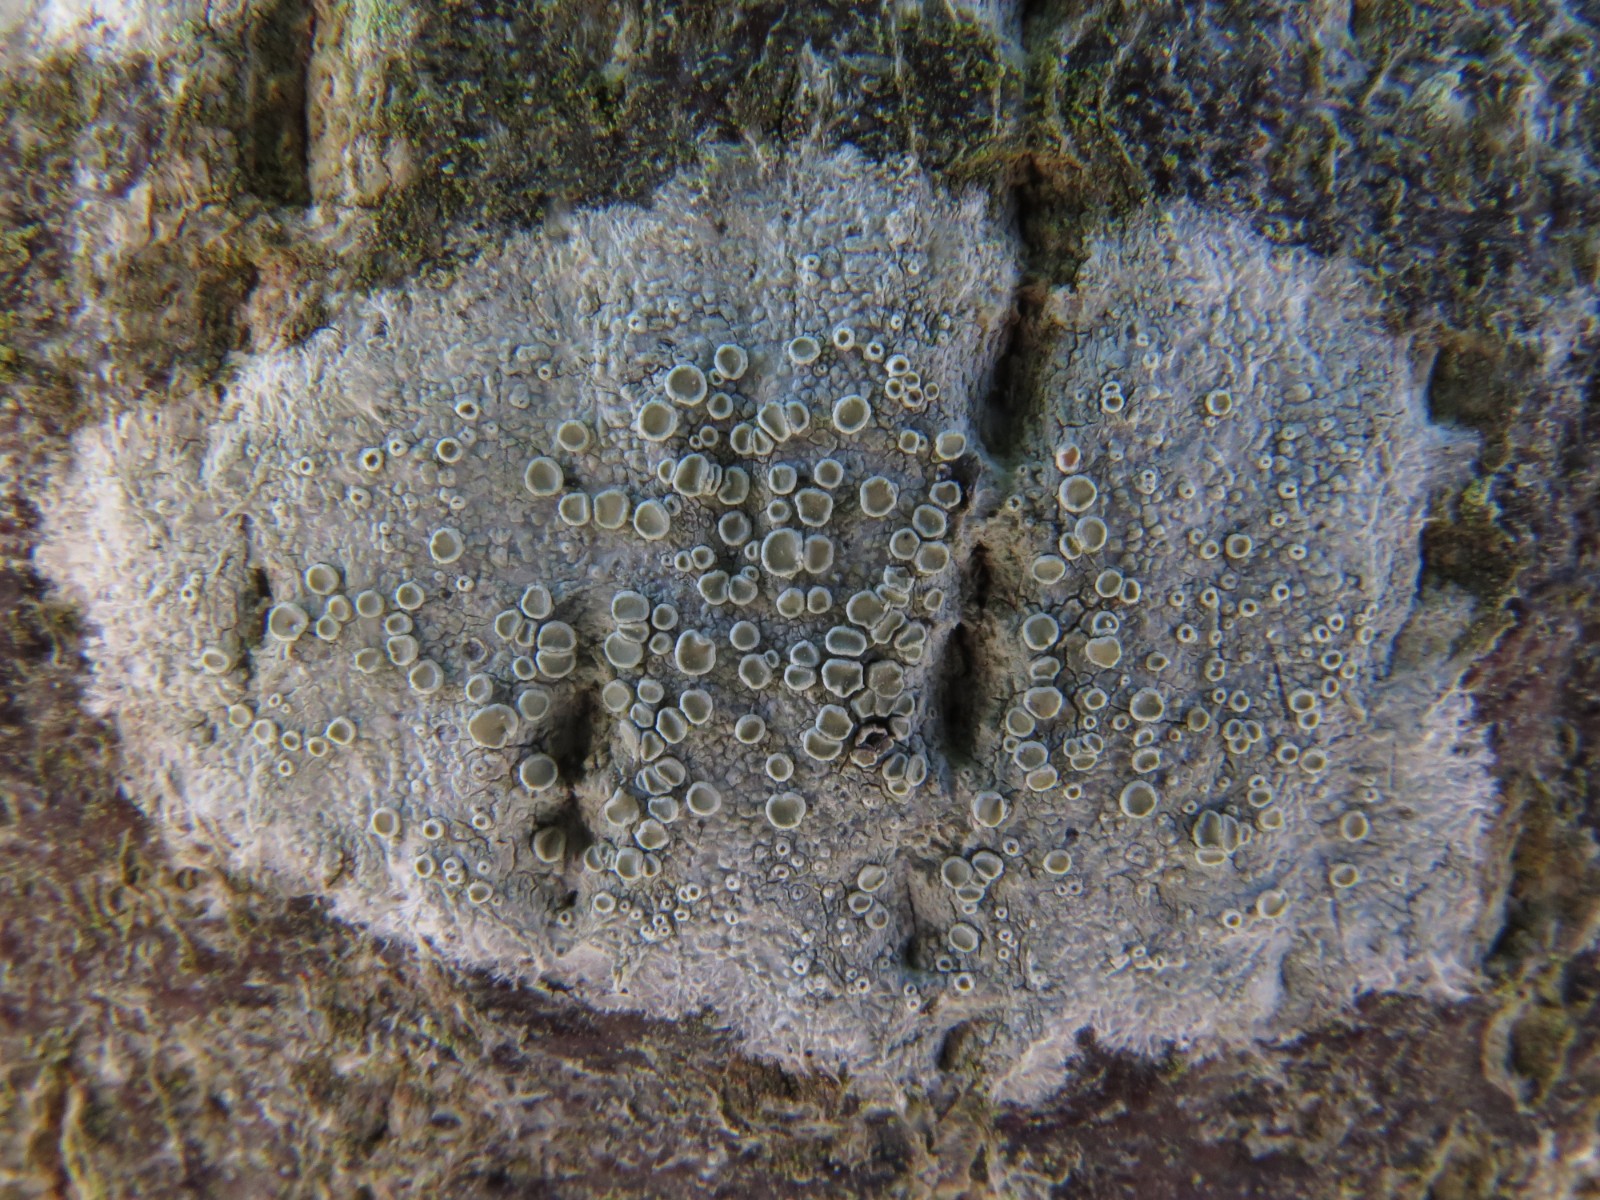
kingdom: Fungi
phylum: Ascomycota
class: Lecanoromycetes
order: Lecanorales
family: Lecanoraceae
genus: Glaucomaria
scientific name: Glaucomaria carpinea
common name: hviddugget kantskivelav
